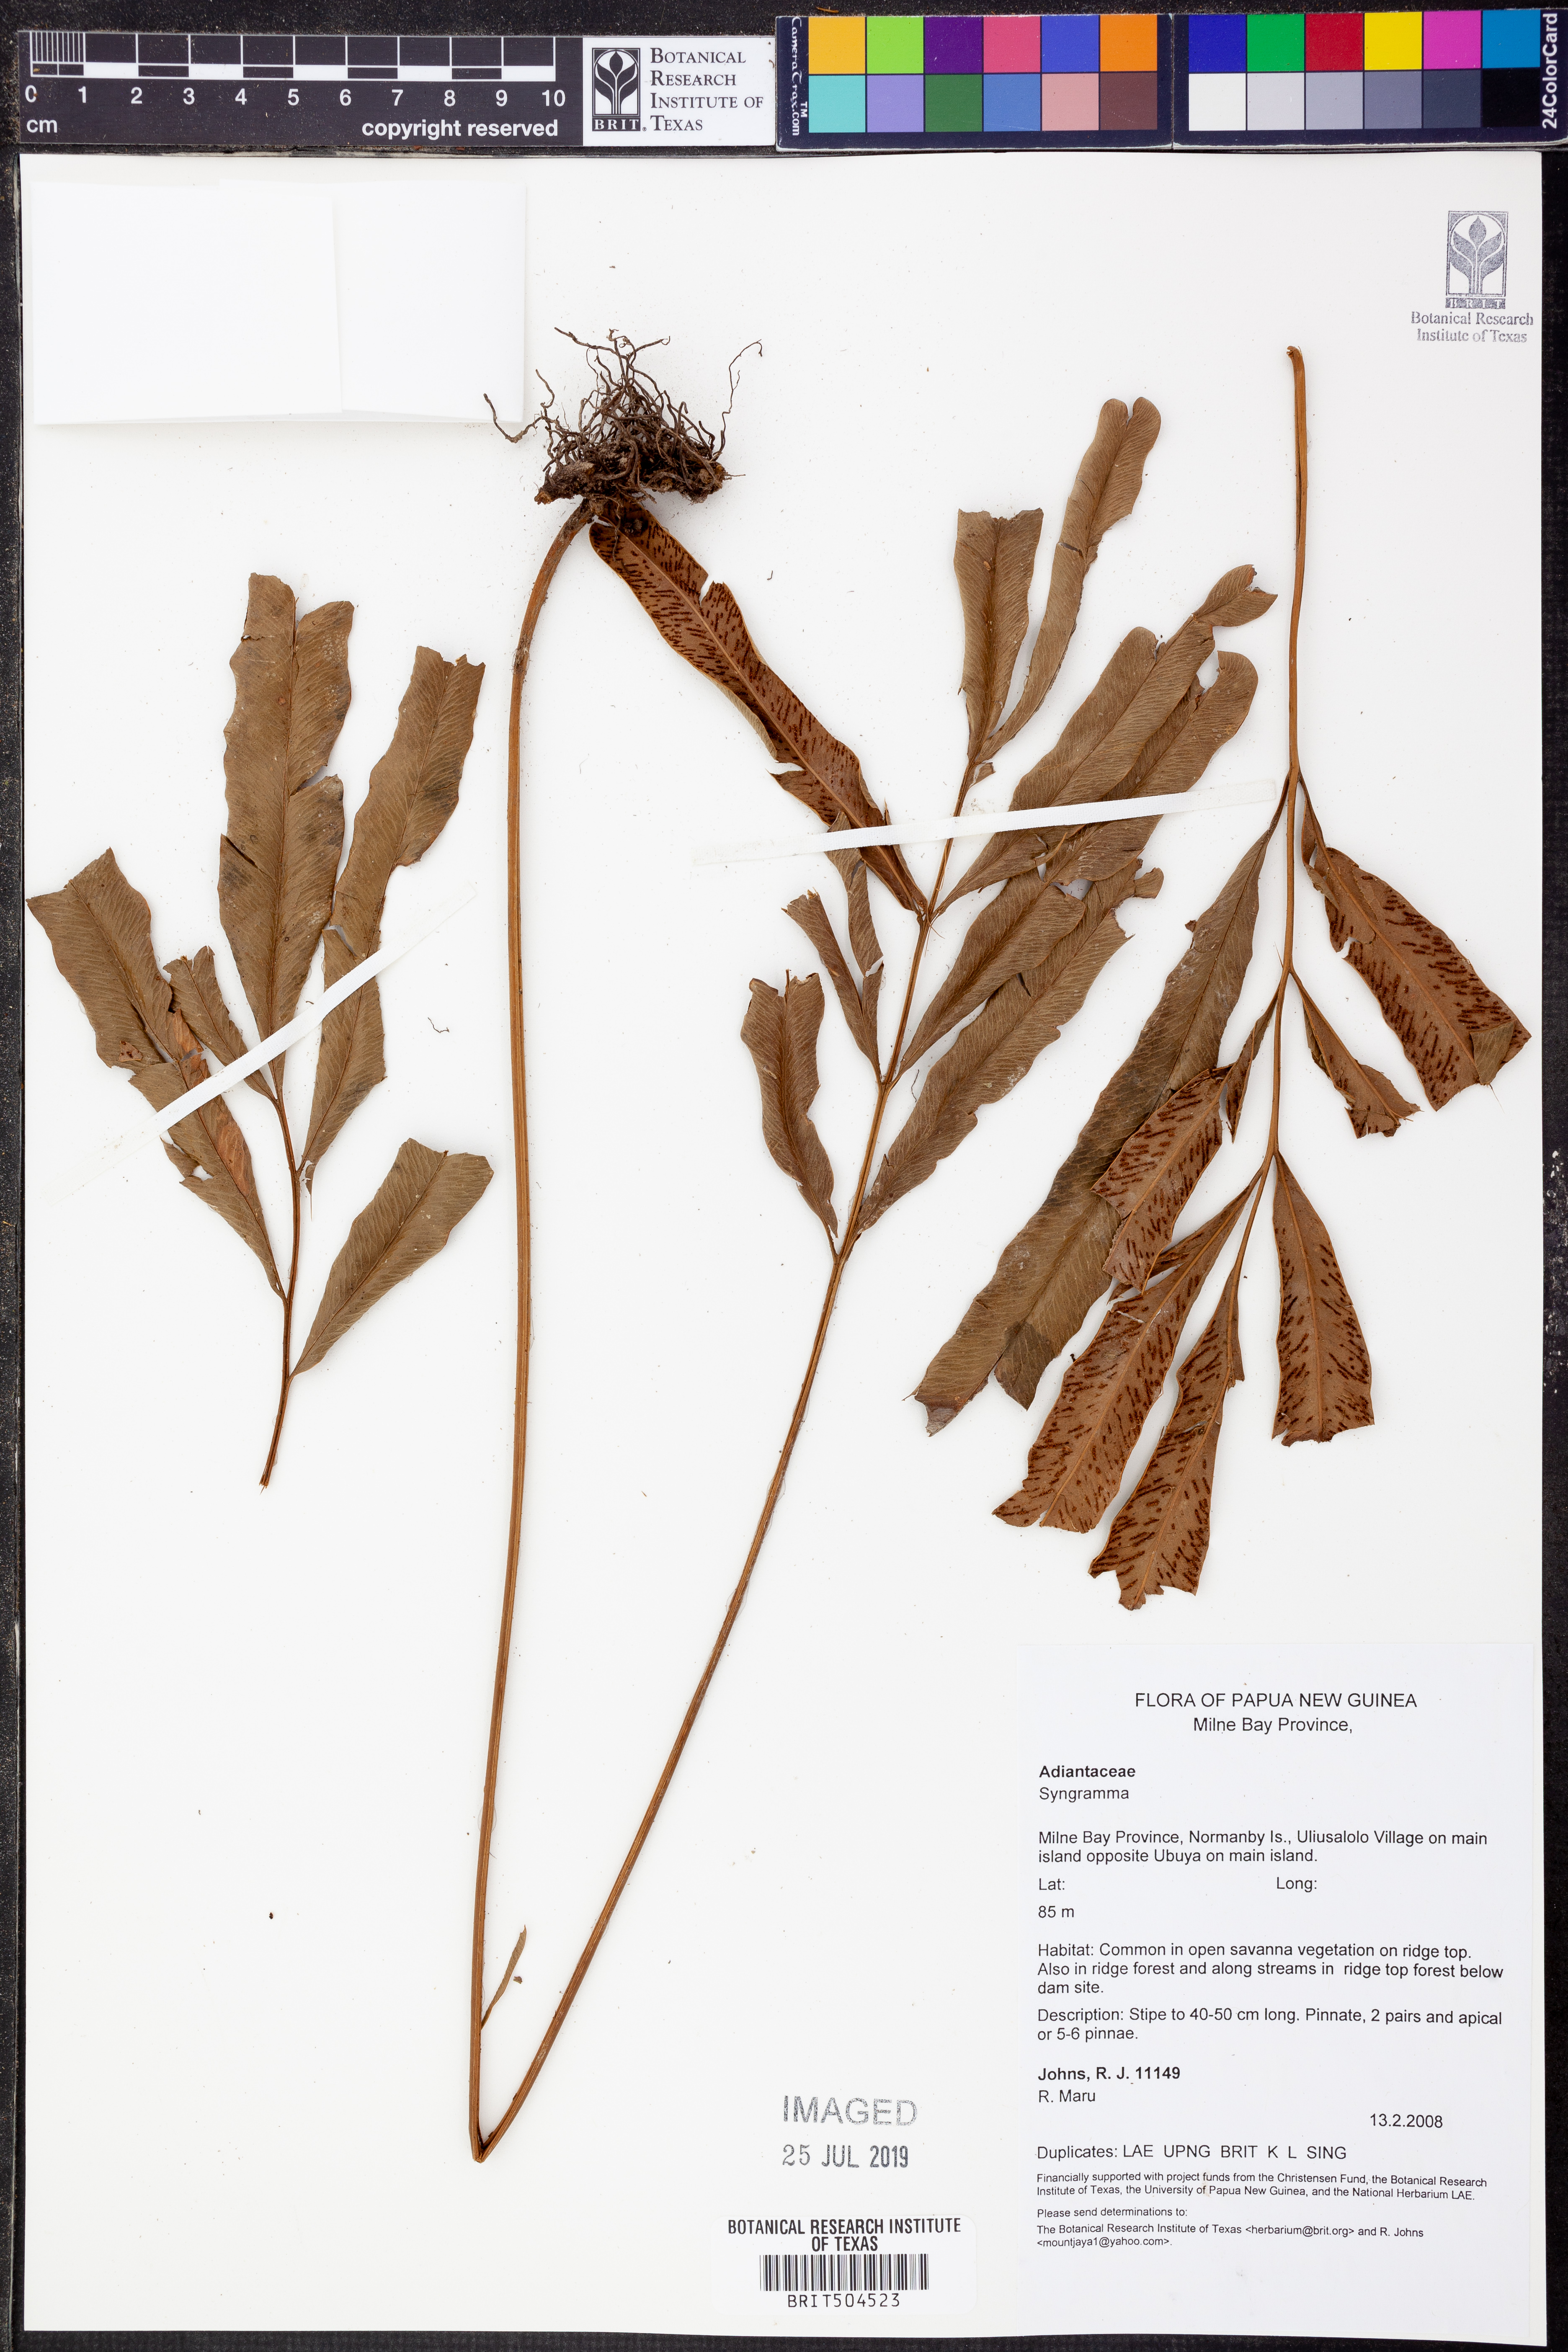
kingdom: Plantae
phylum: Tracheophyta
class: Polypodiopsida
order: Polypodiales
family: Pteridaceae
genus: Syngramma
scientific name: Syngramma
